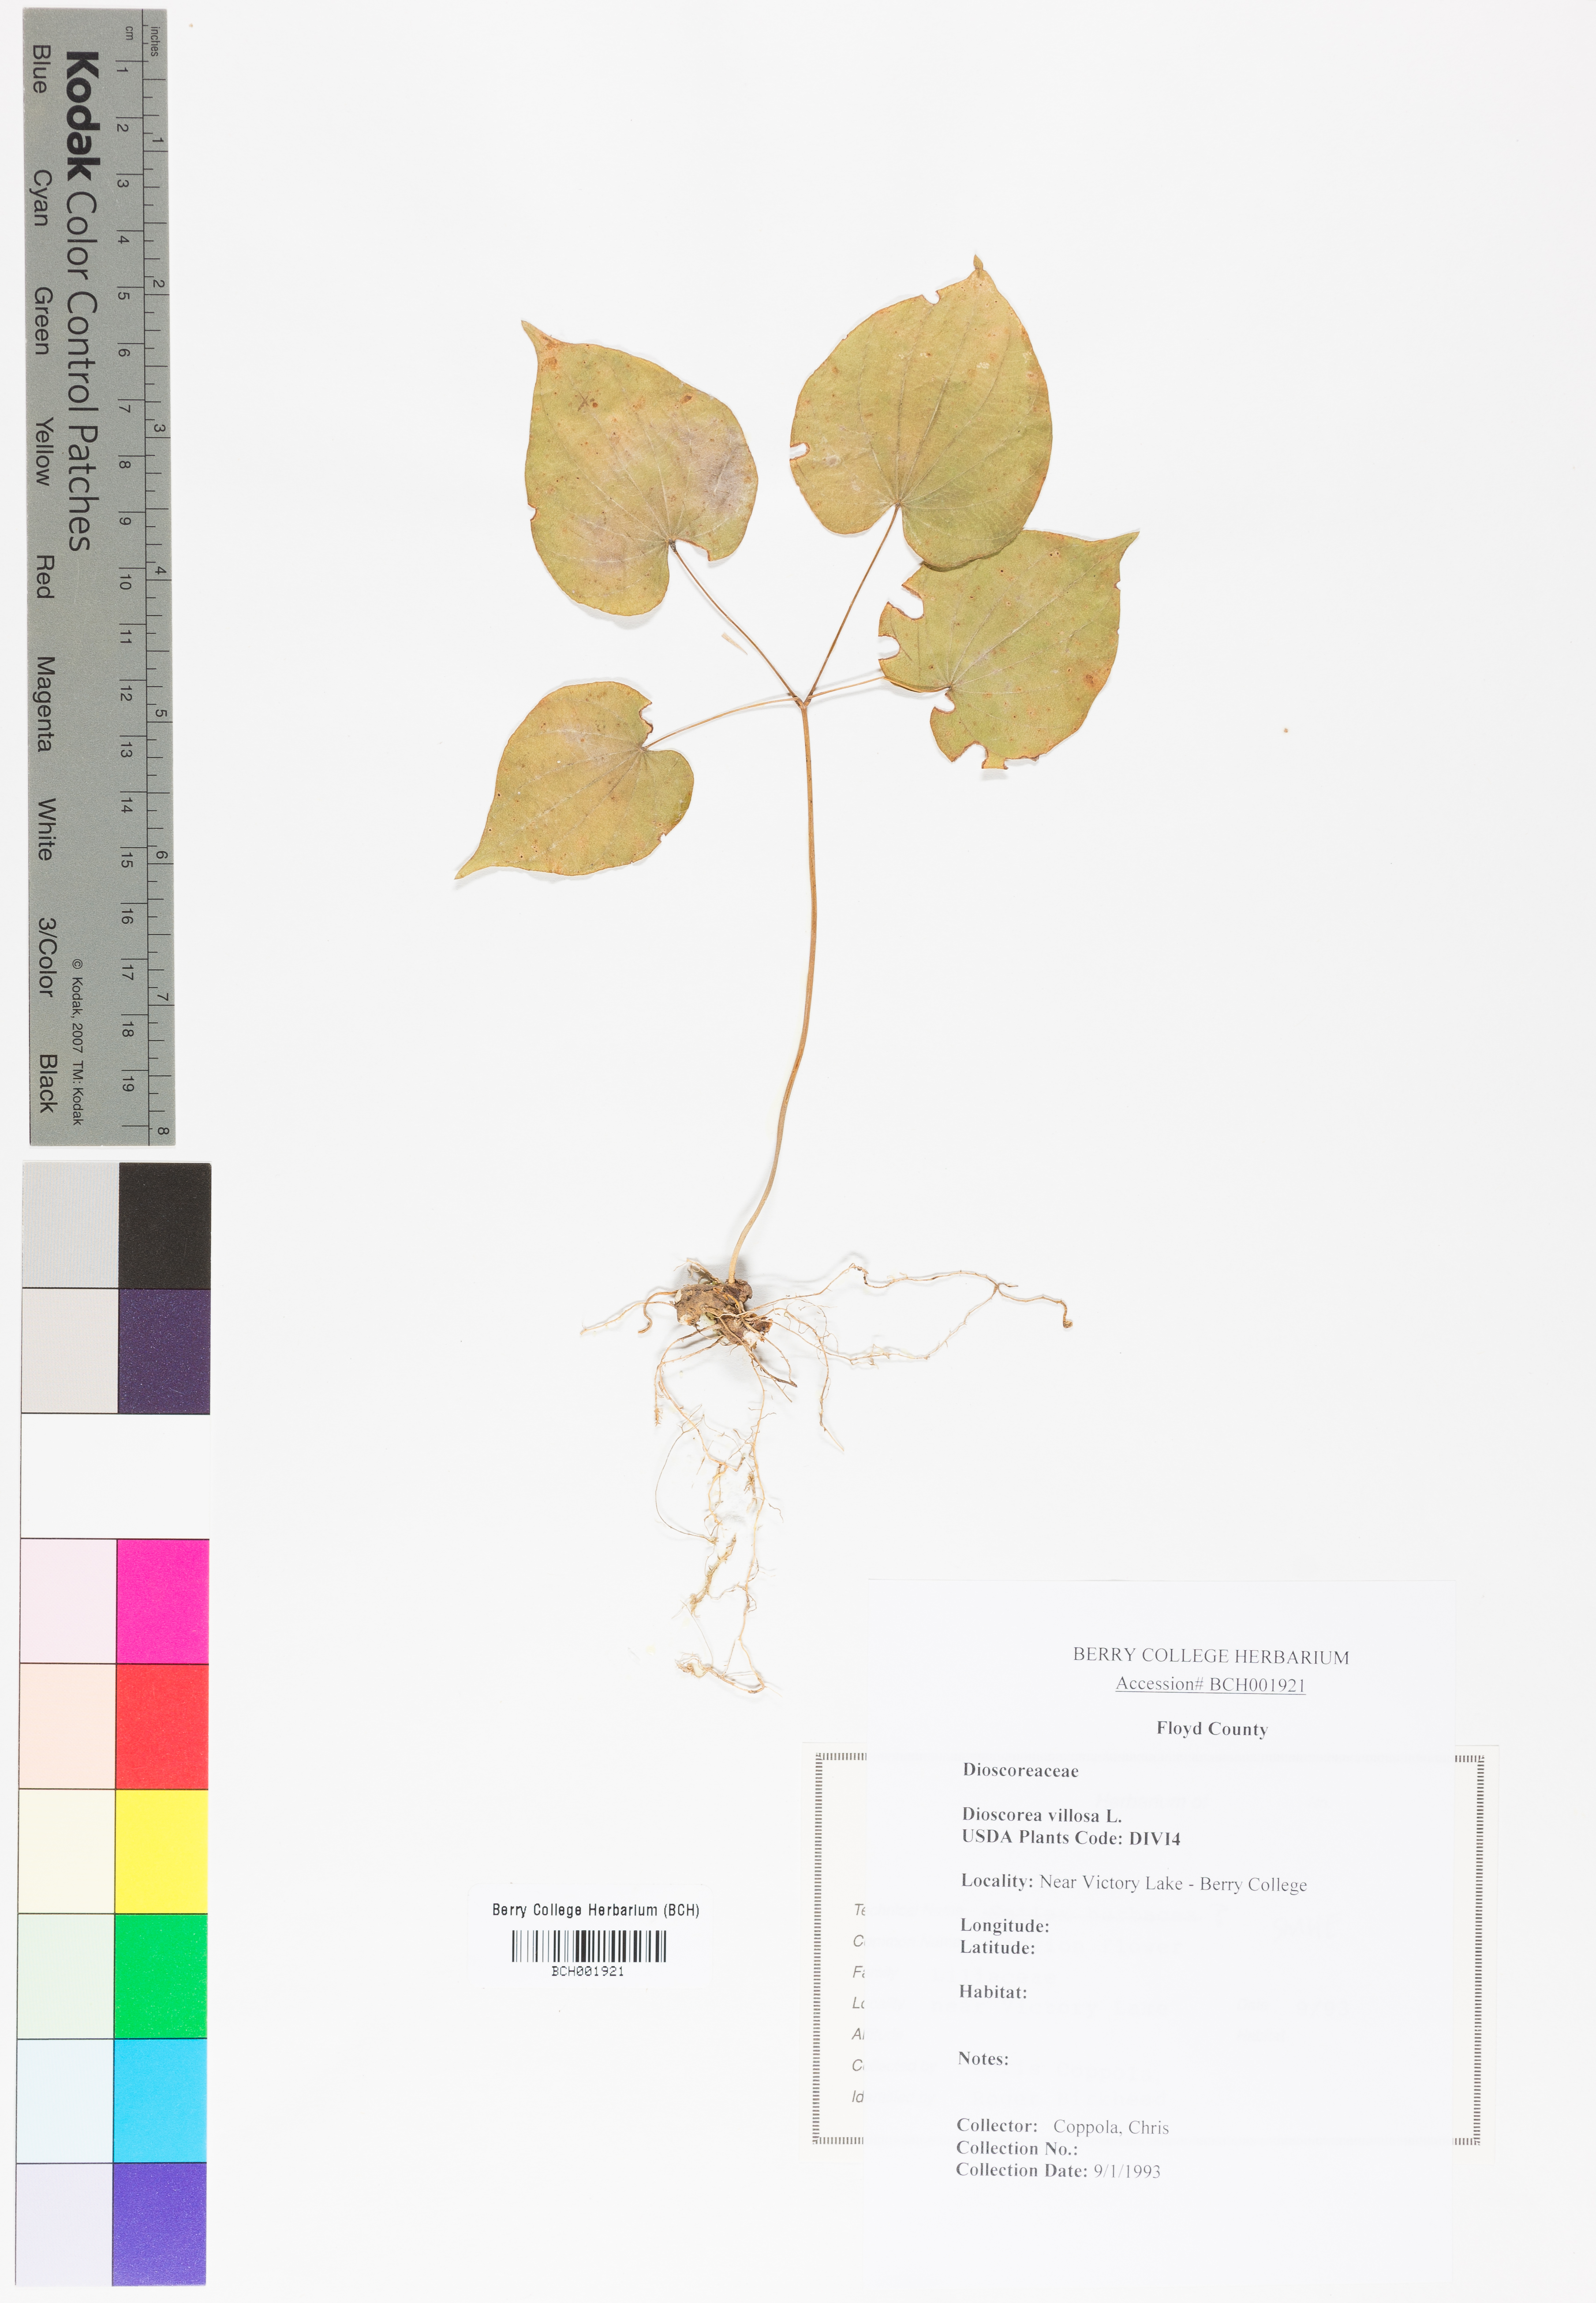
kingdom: Plantae
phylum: Tracheophyta
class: Liliopsida
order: Dioscoreales
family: Dioscoreaceae
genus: Dioscorea
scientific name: Dioscorea villosa
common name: Wild yam
